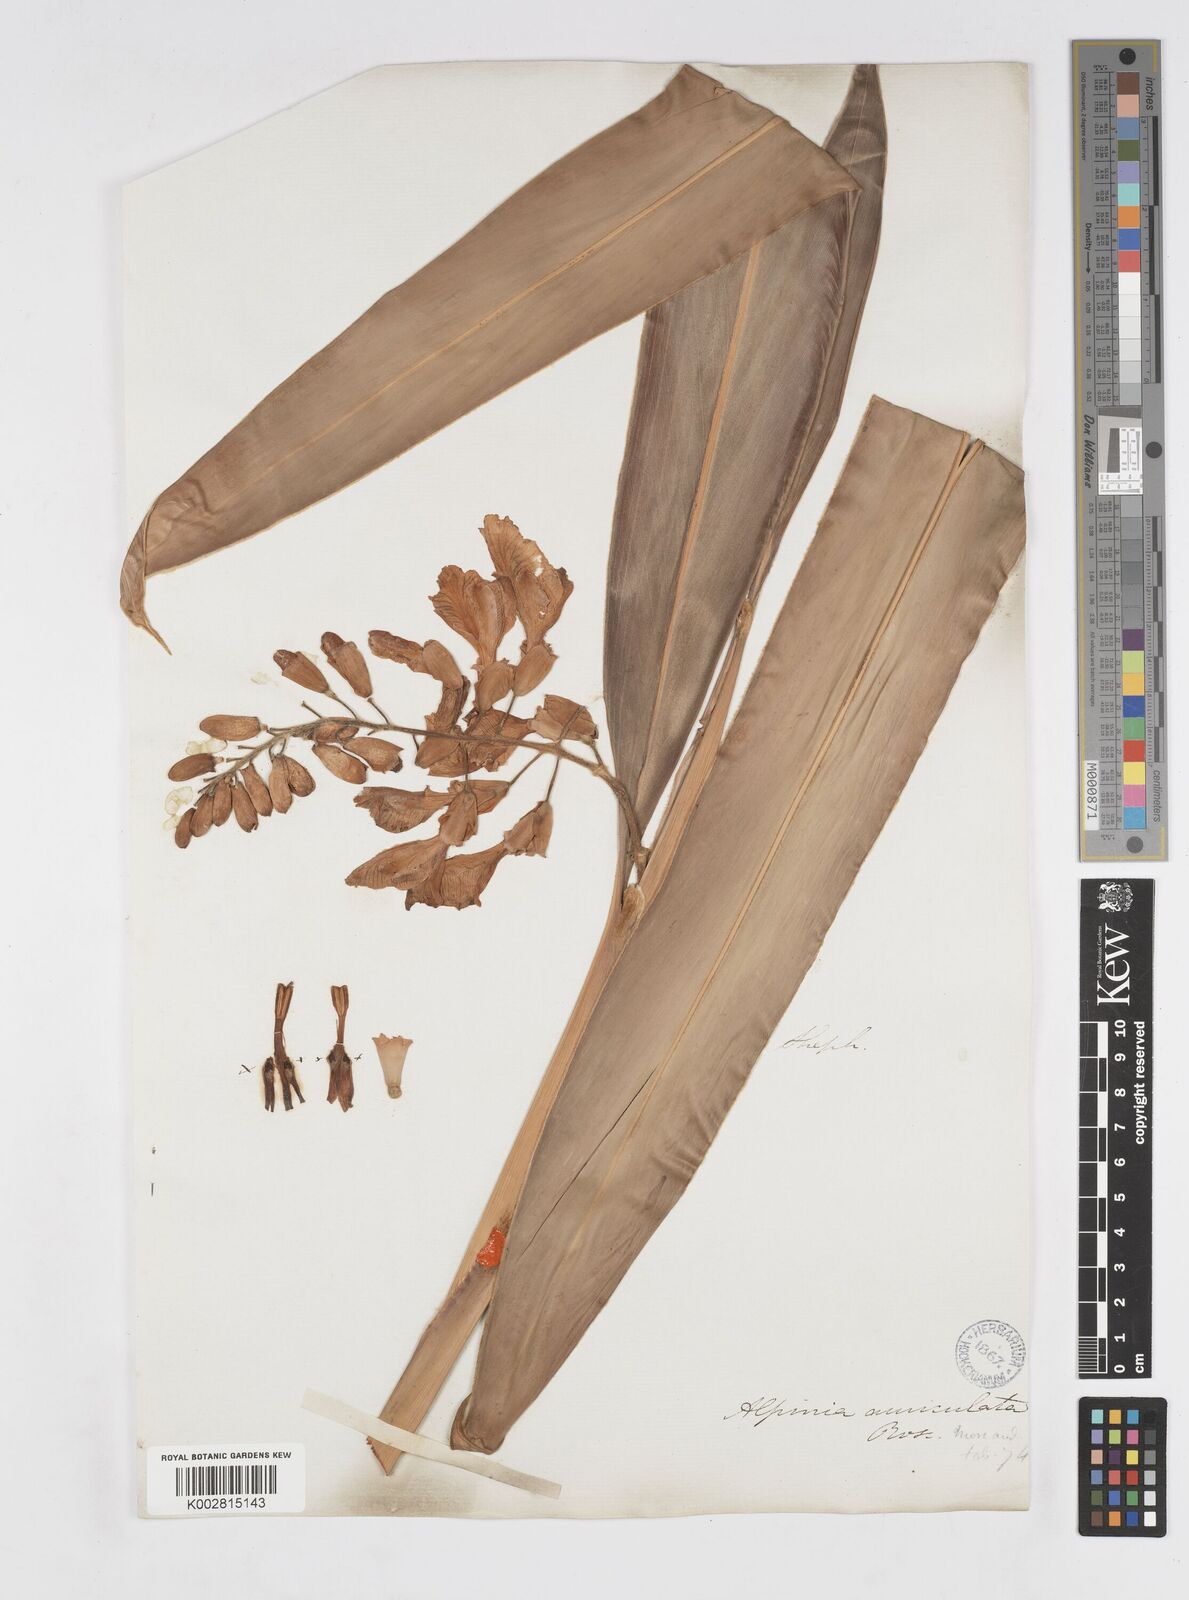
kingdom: Plantae
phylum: Tracheophyta
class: Liliopsida
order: Zingiberales
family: Zingiberaceae
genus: Alpinia
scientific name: Alpinia auriculata
